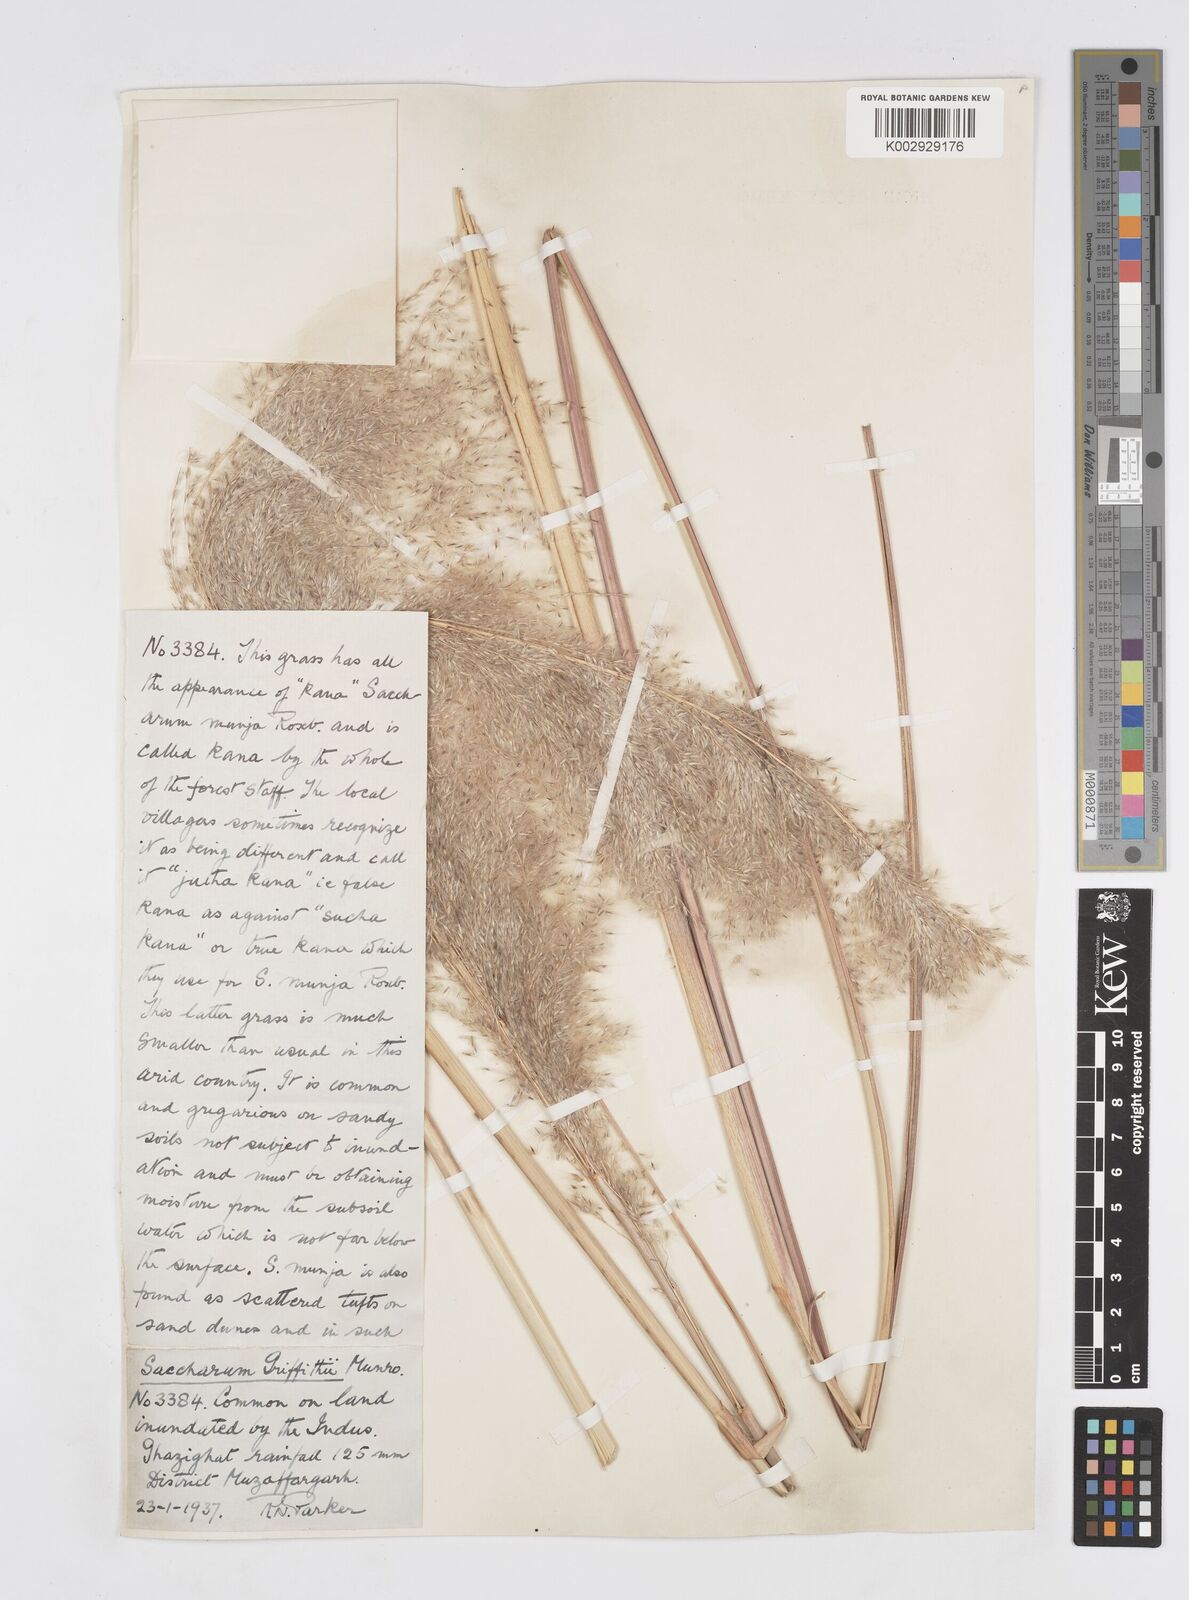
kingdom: Plantae
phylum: Tracheophyta
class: Liliopsida
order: Poales
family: Poaceae
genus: Saccharum
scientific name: Saccharum griffithii
